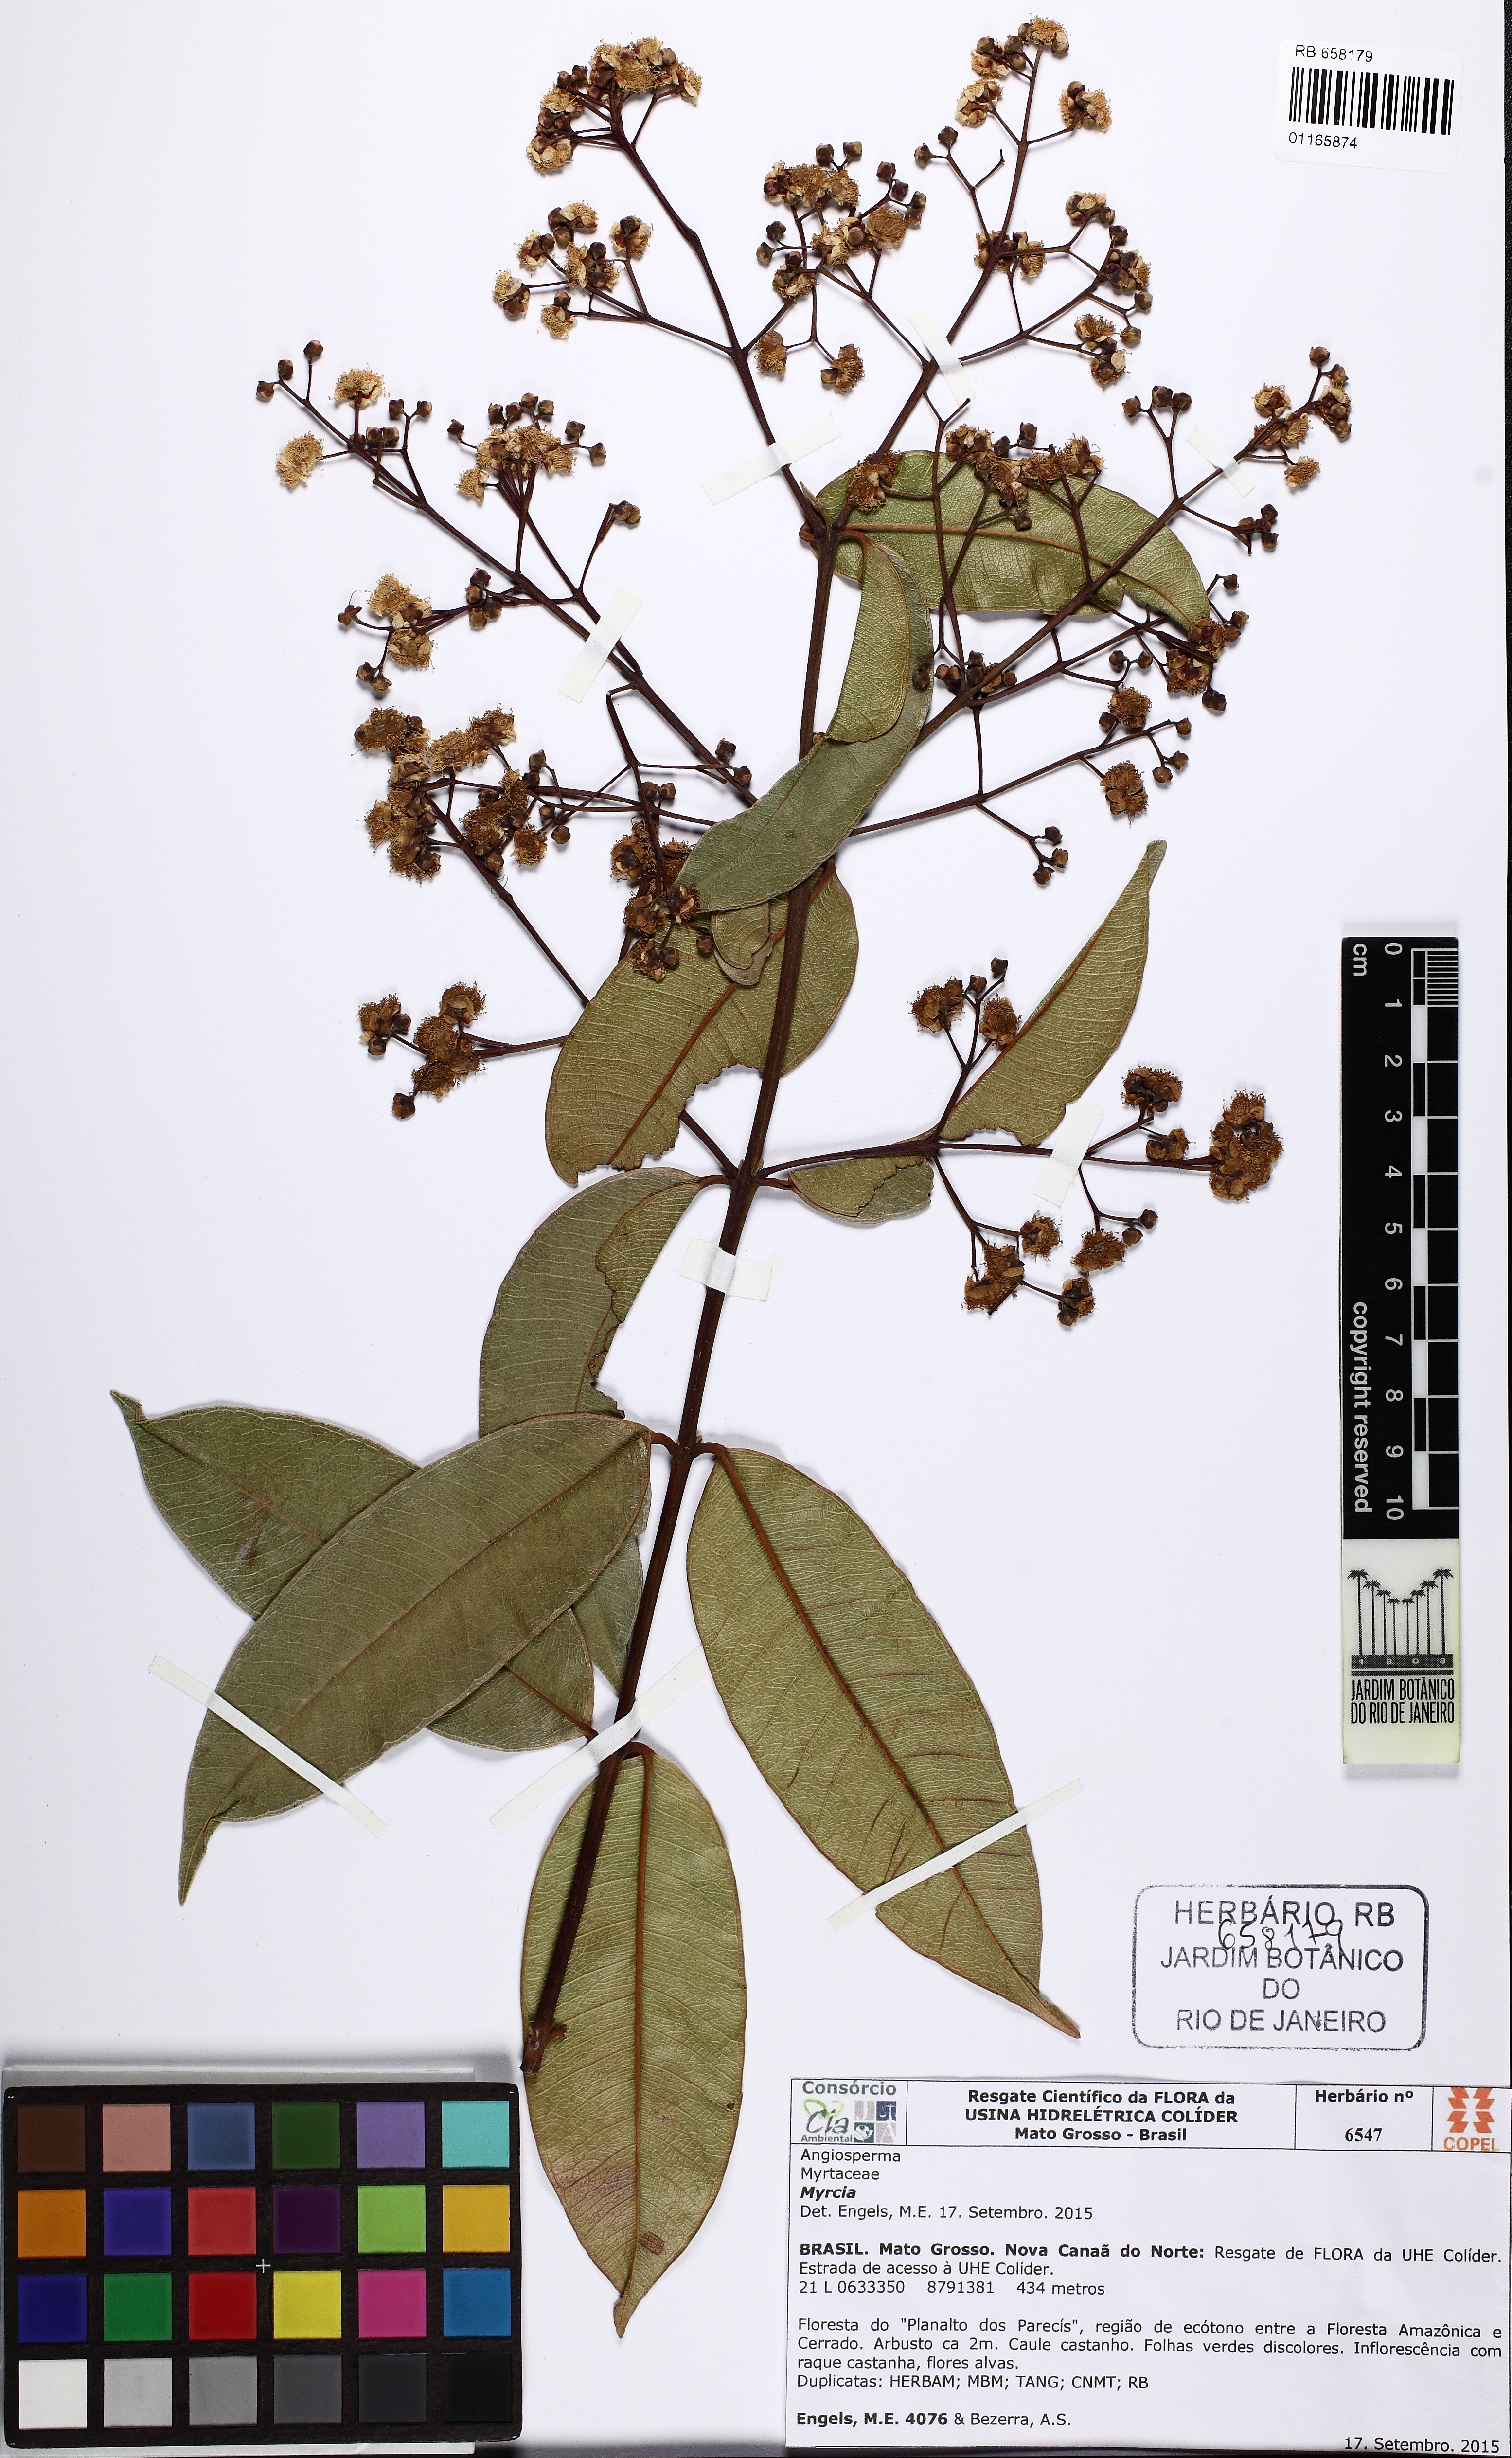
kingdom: Plantae
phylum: Tracheophyta
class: Magnoliopsida
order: Myrtales
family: Myrtaceae
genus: Myrcia
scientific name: Myrcia
